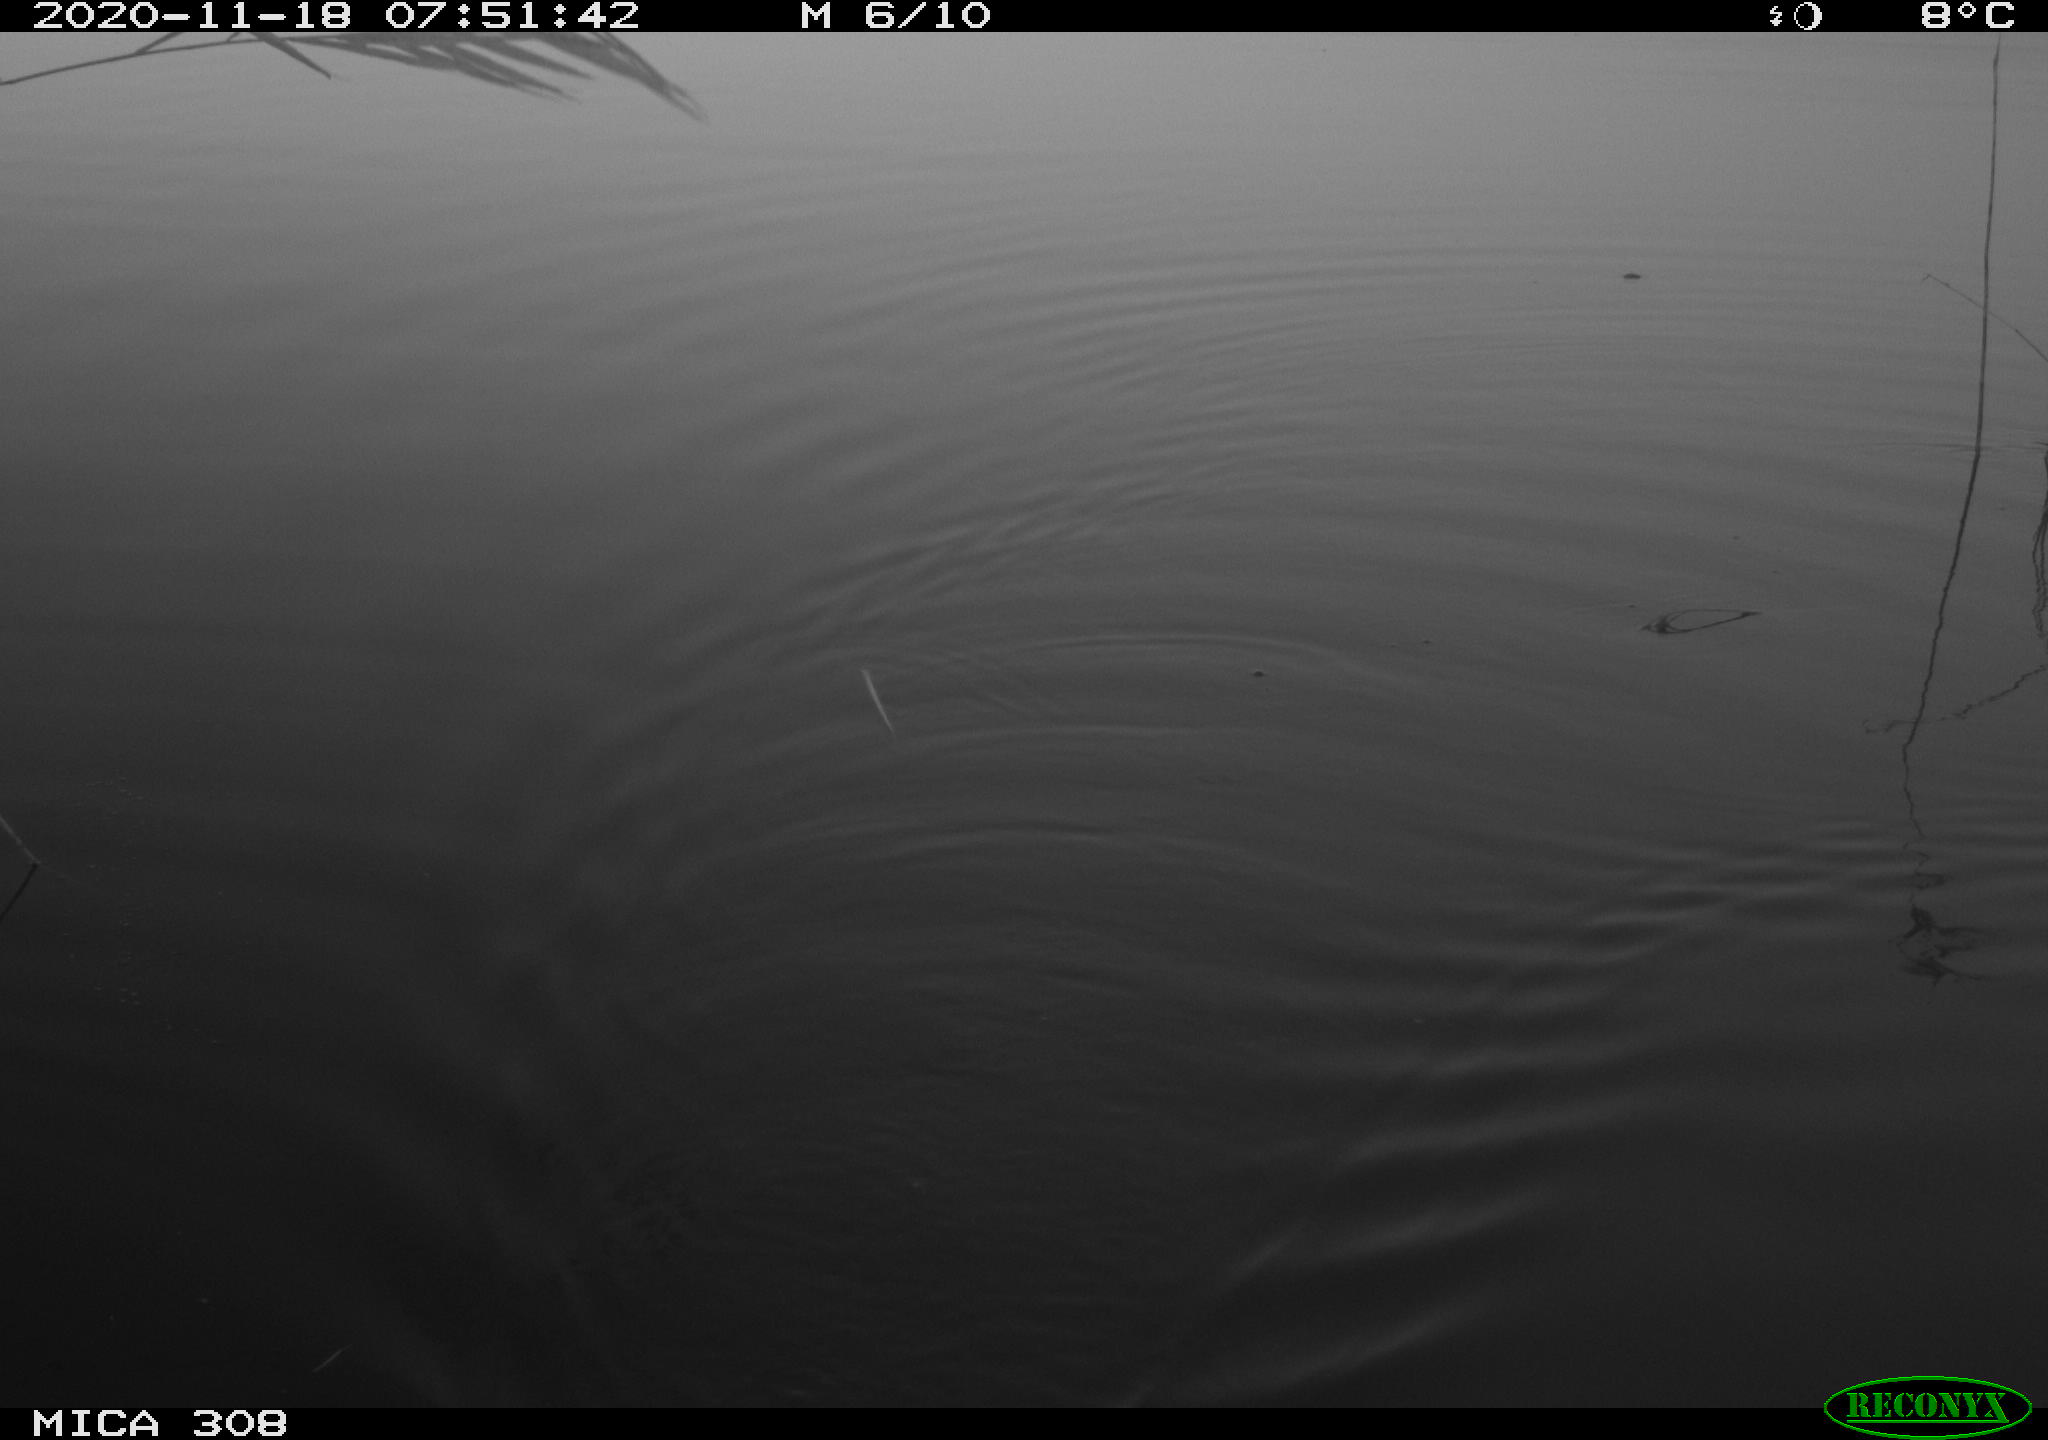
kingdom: Animalia
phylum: Chordata
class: Aves
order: Gruiformes
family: Rallidae
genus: Fulica
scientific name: Fulica atra
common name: Eurasian coot
